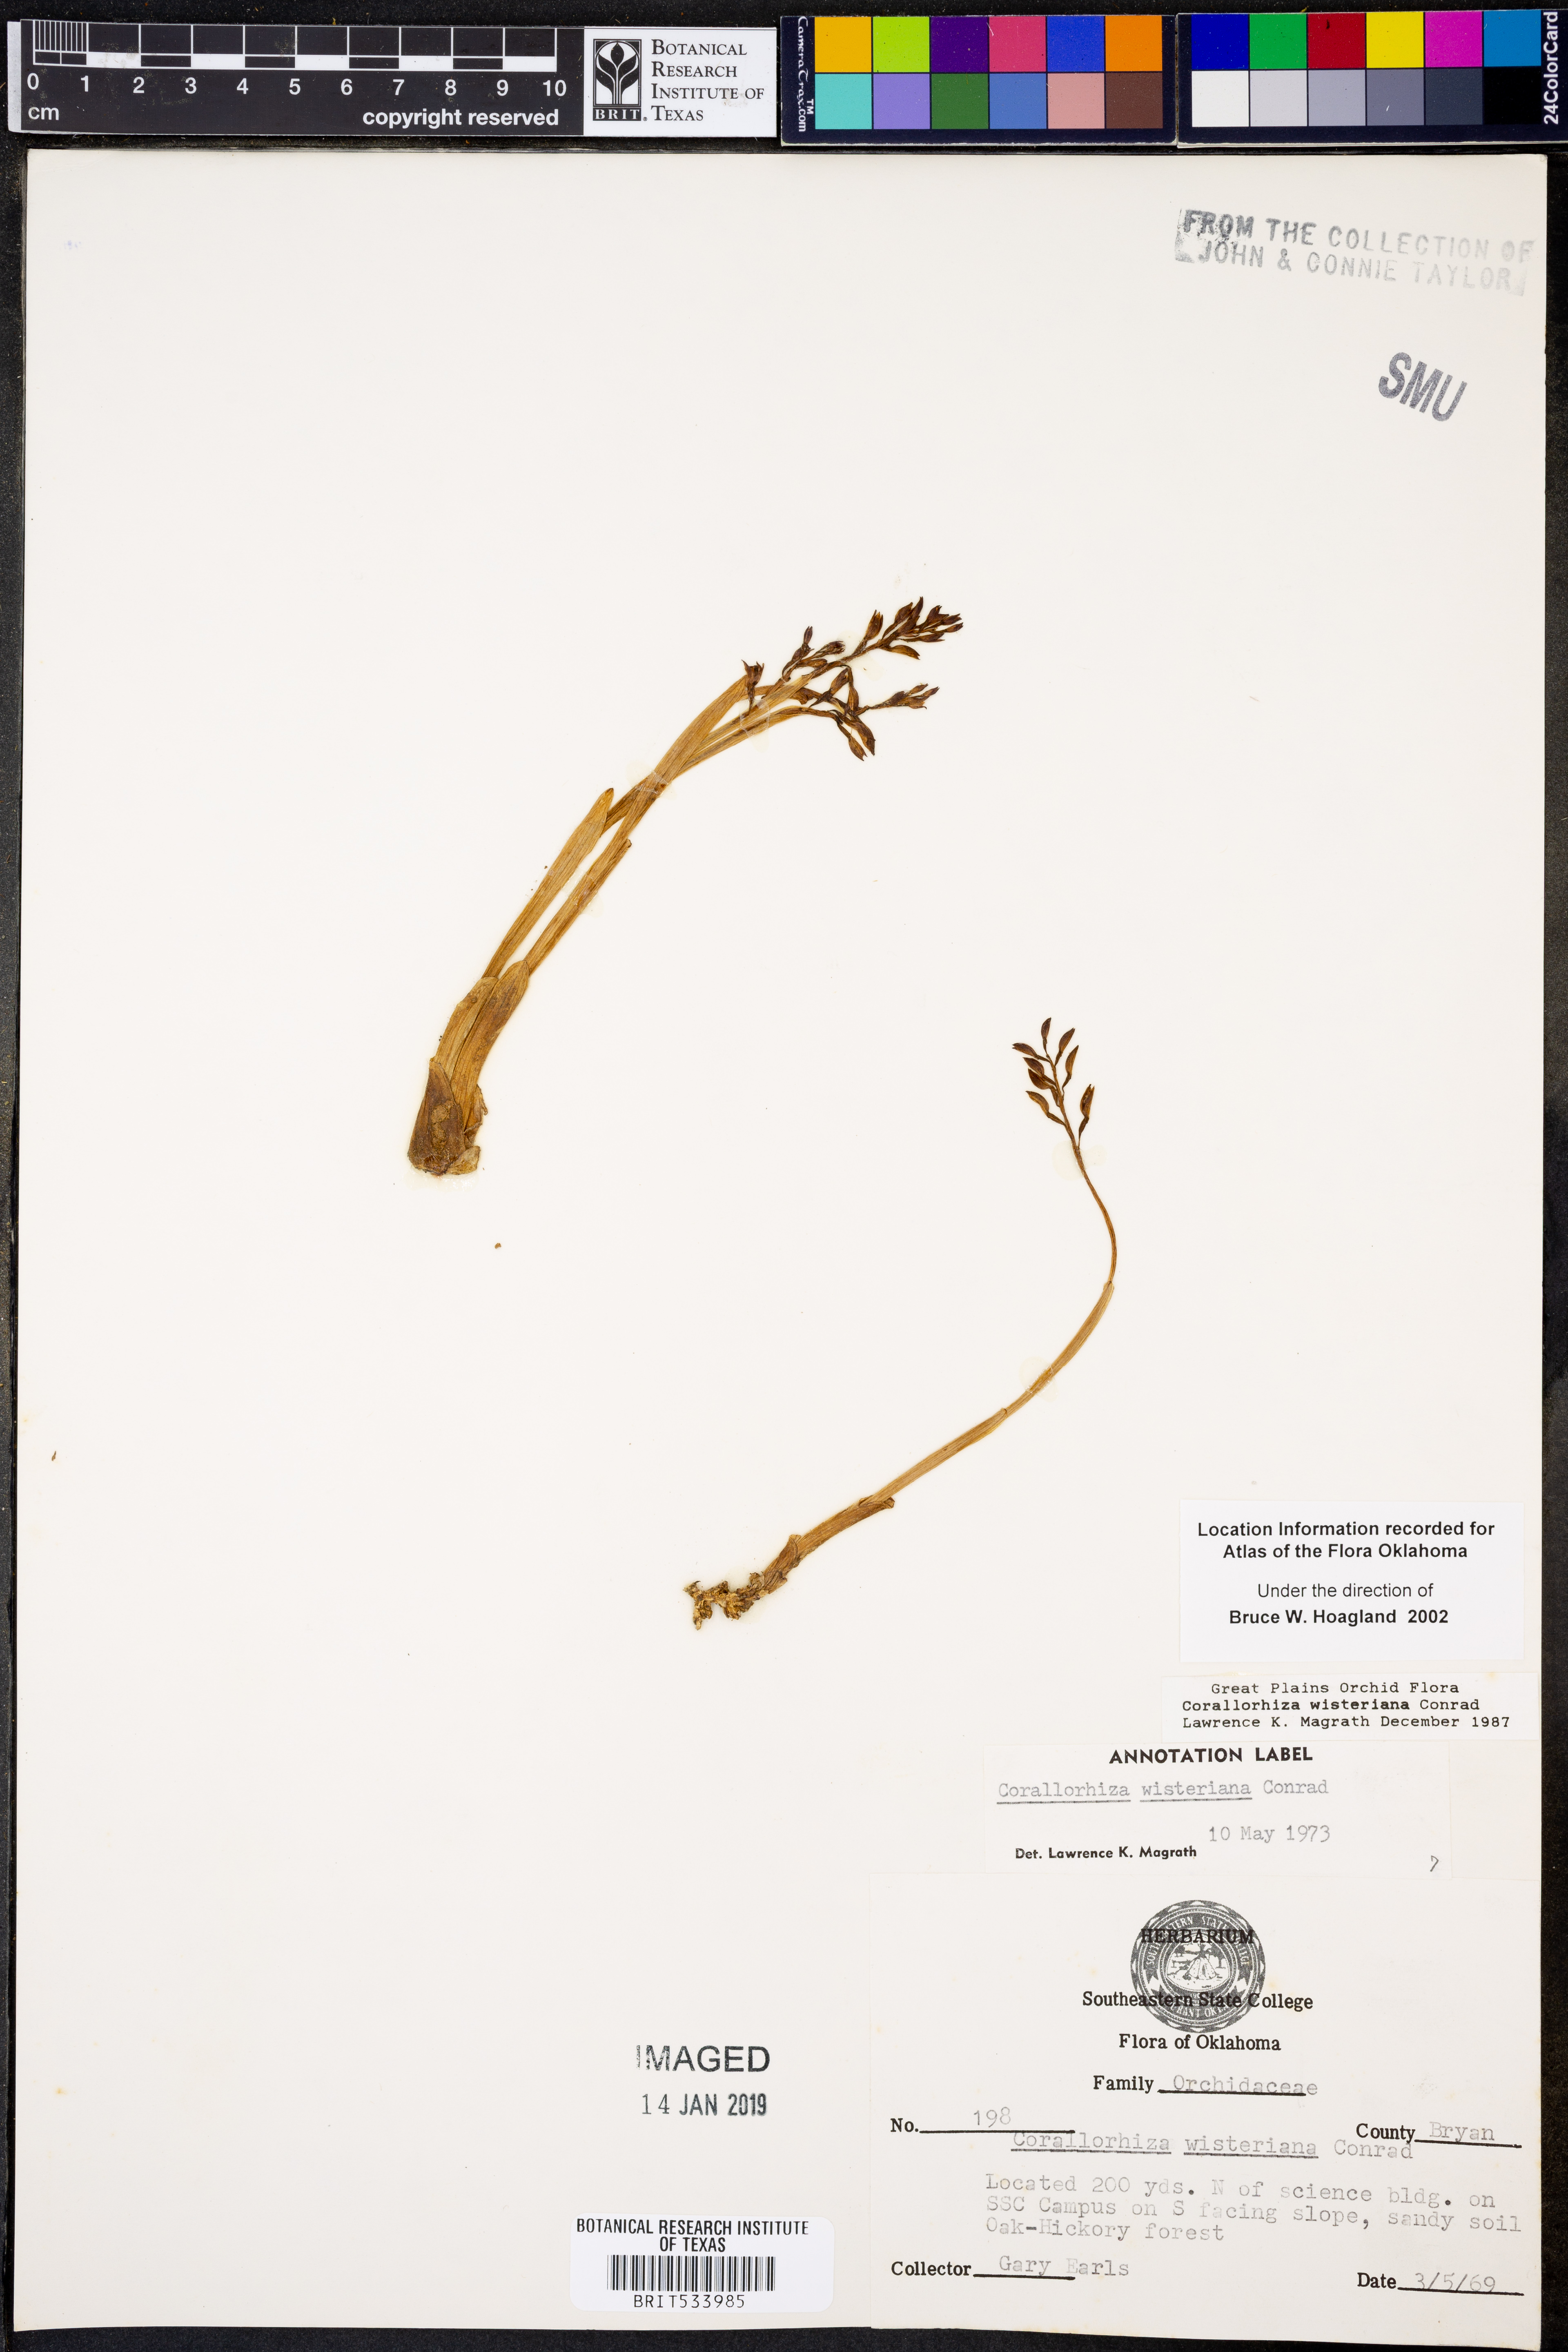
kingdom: Plantae
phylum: Tracheophyta
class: Liliopsida
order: Asparagales
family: Orchidaceae
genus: Corallorhiza
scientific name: Corallorhiza wisteriana
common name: Spring coralroot
